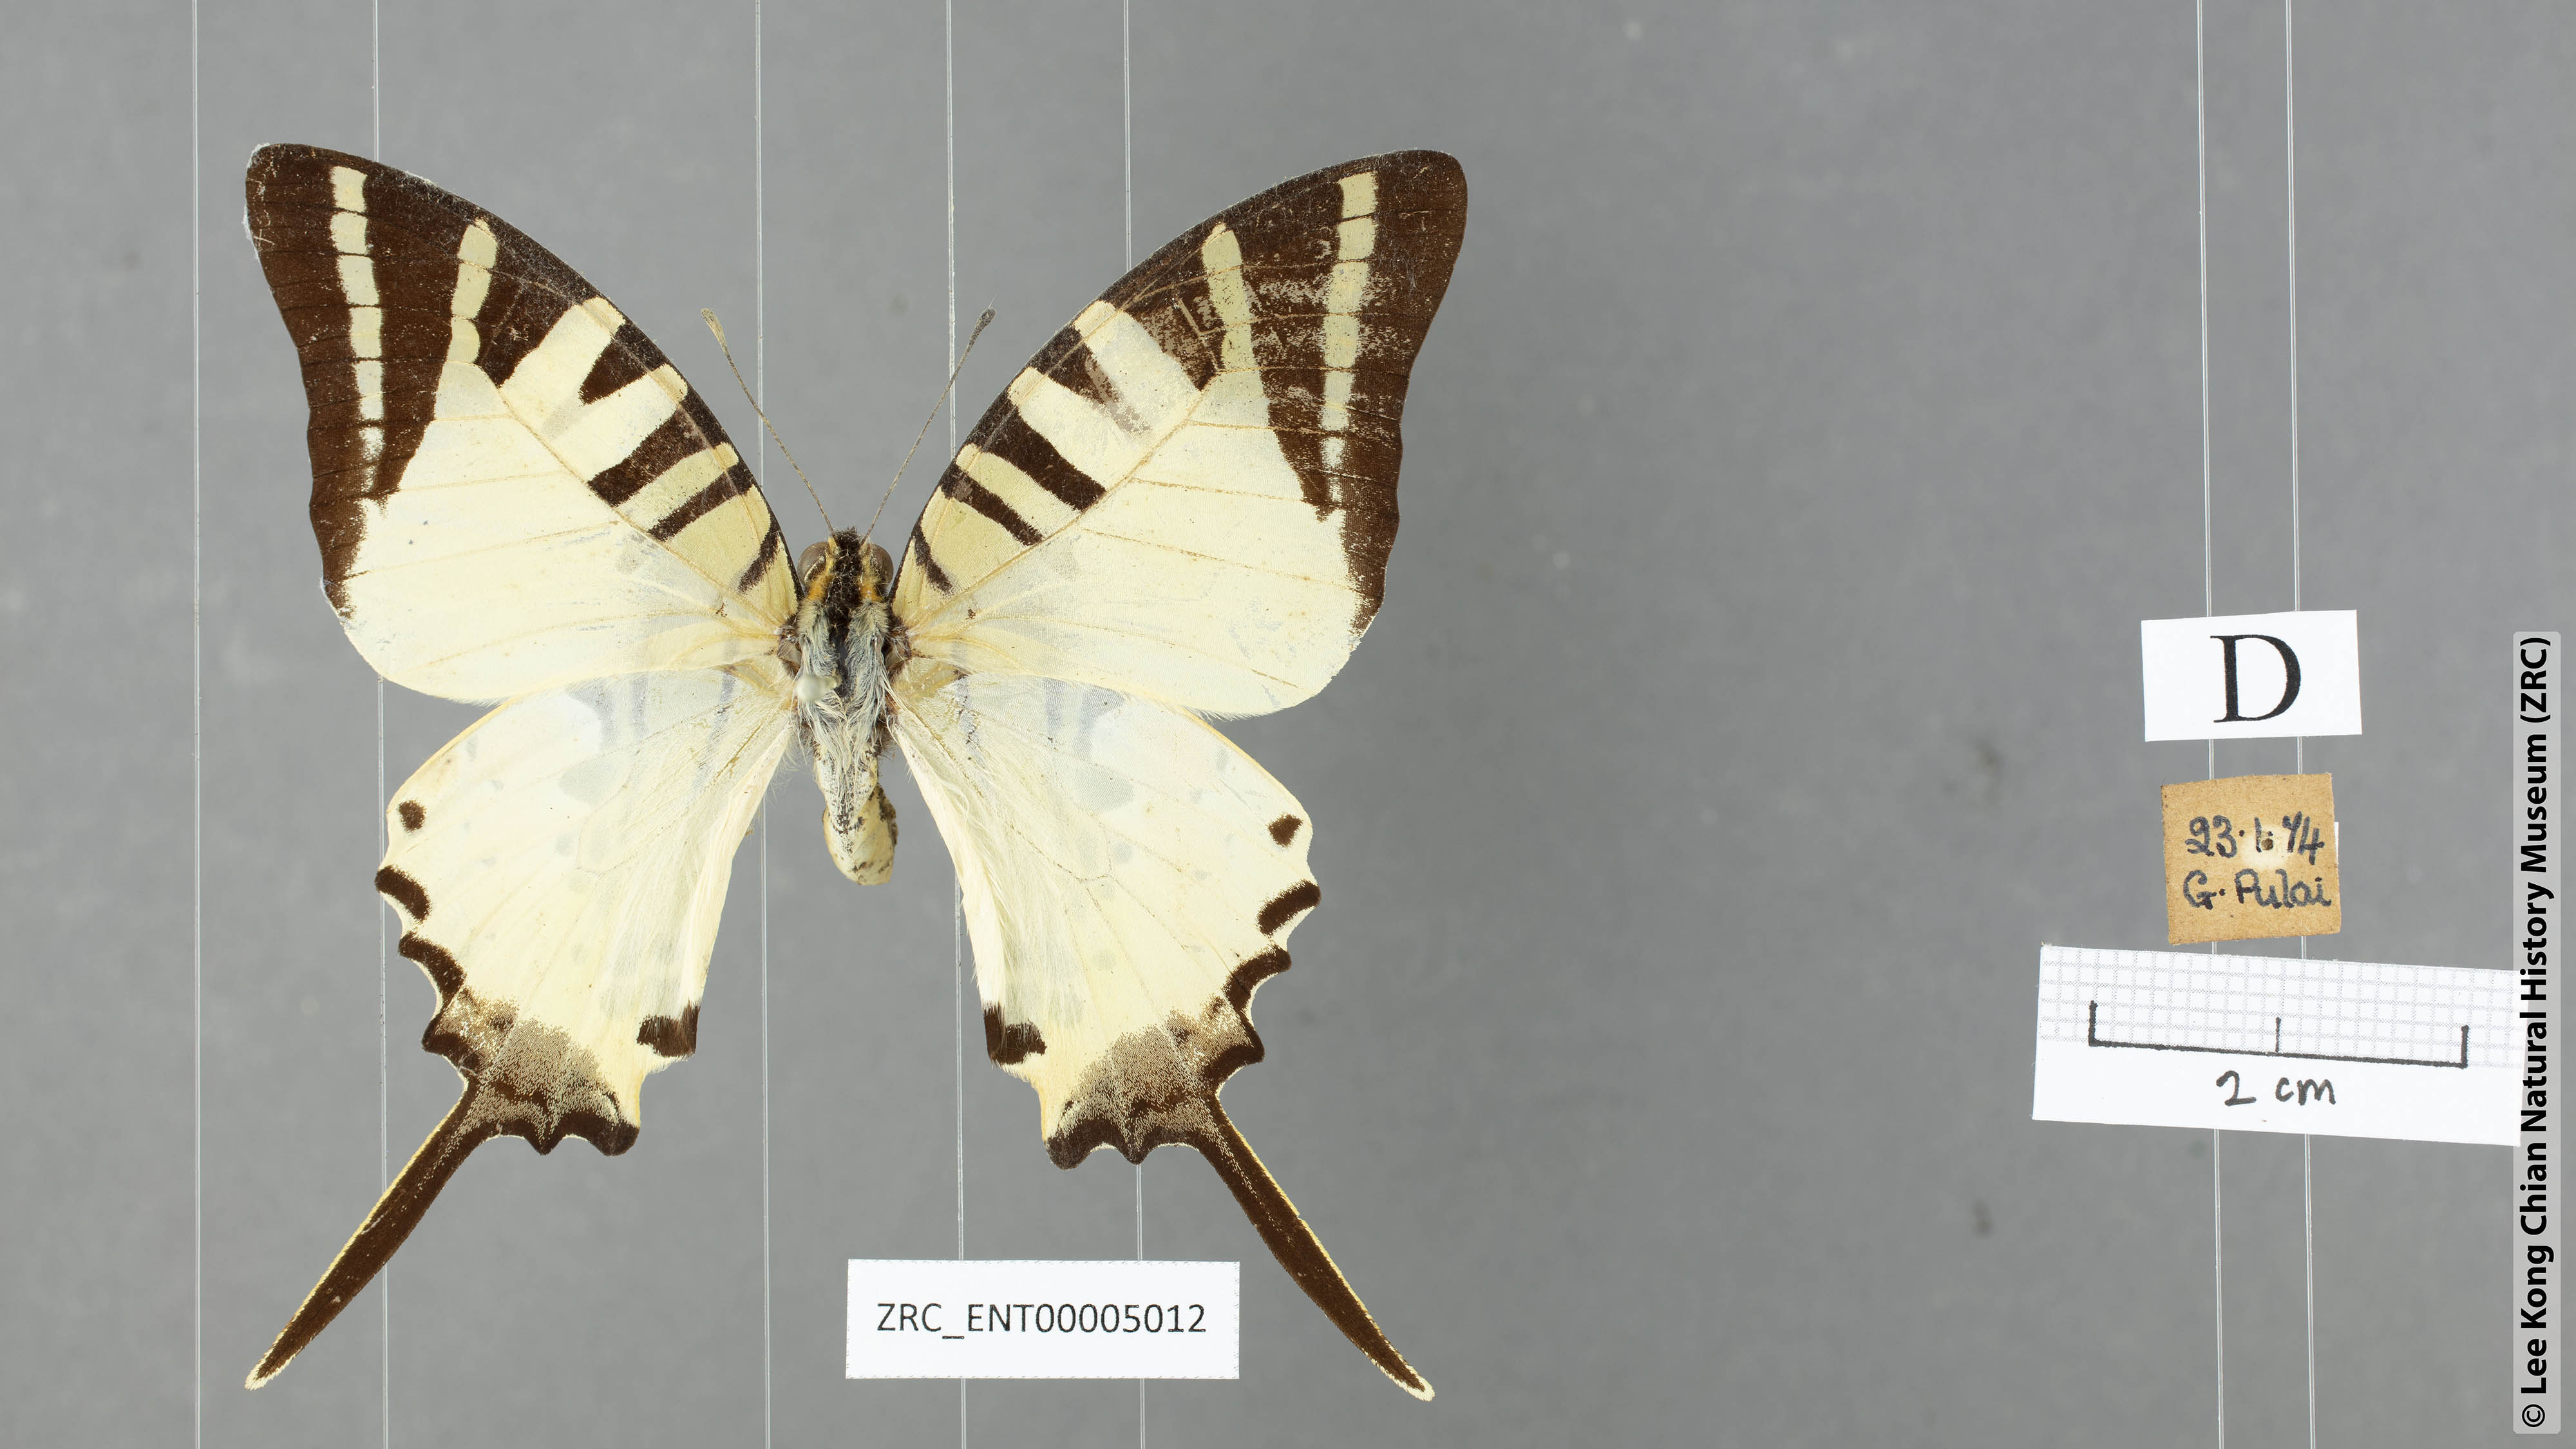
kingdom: Animalia
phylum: Arthropoda
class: Insecta
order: Lepidoptera
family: Papilionidae
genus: Graphium
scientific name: Graphium antiphates
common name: Fivebar swordtail
